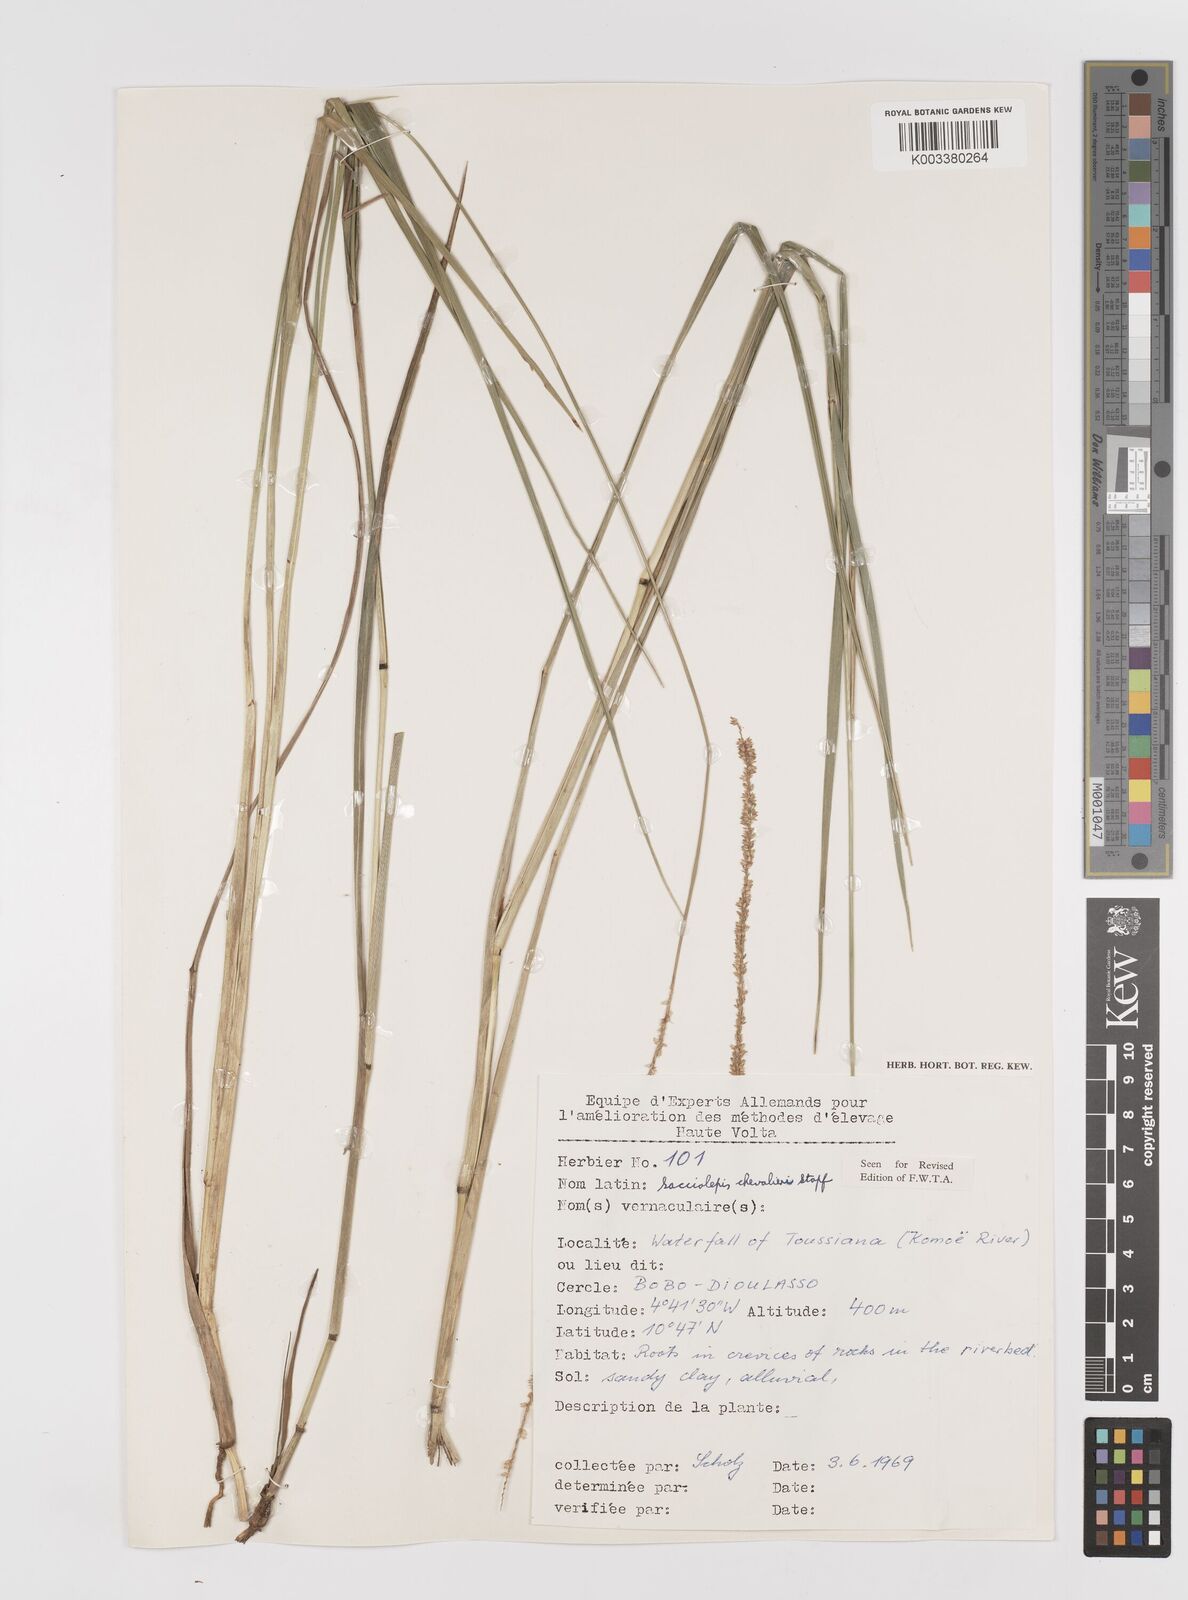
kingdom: Plantae
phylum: Tracheophyta
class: Liliopsida
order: Poales
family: Poaceae
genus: Sacciolepis
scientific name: Sacciolepis typhura
